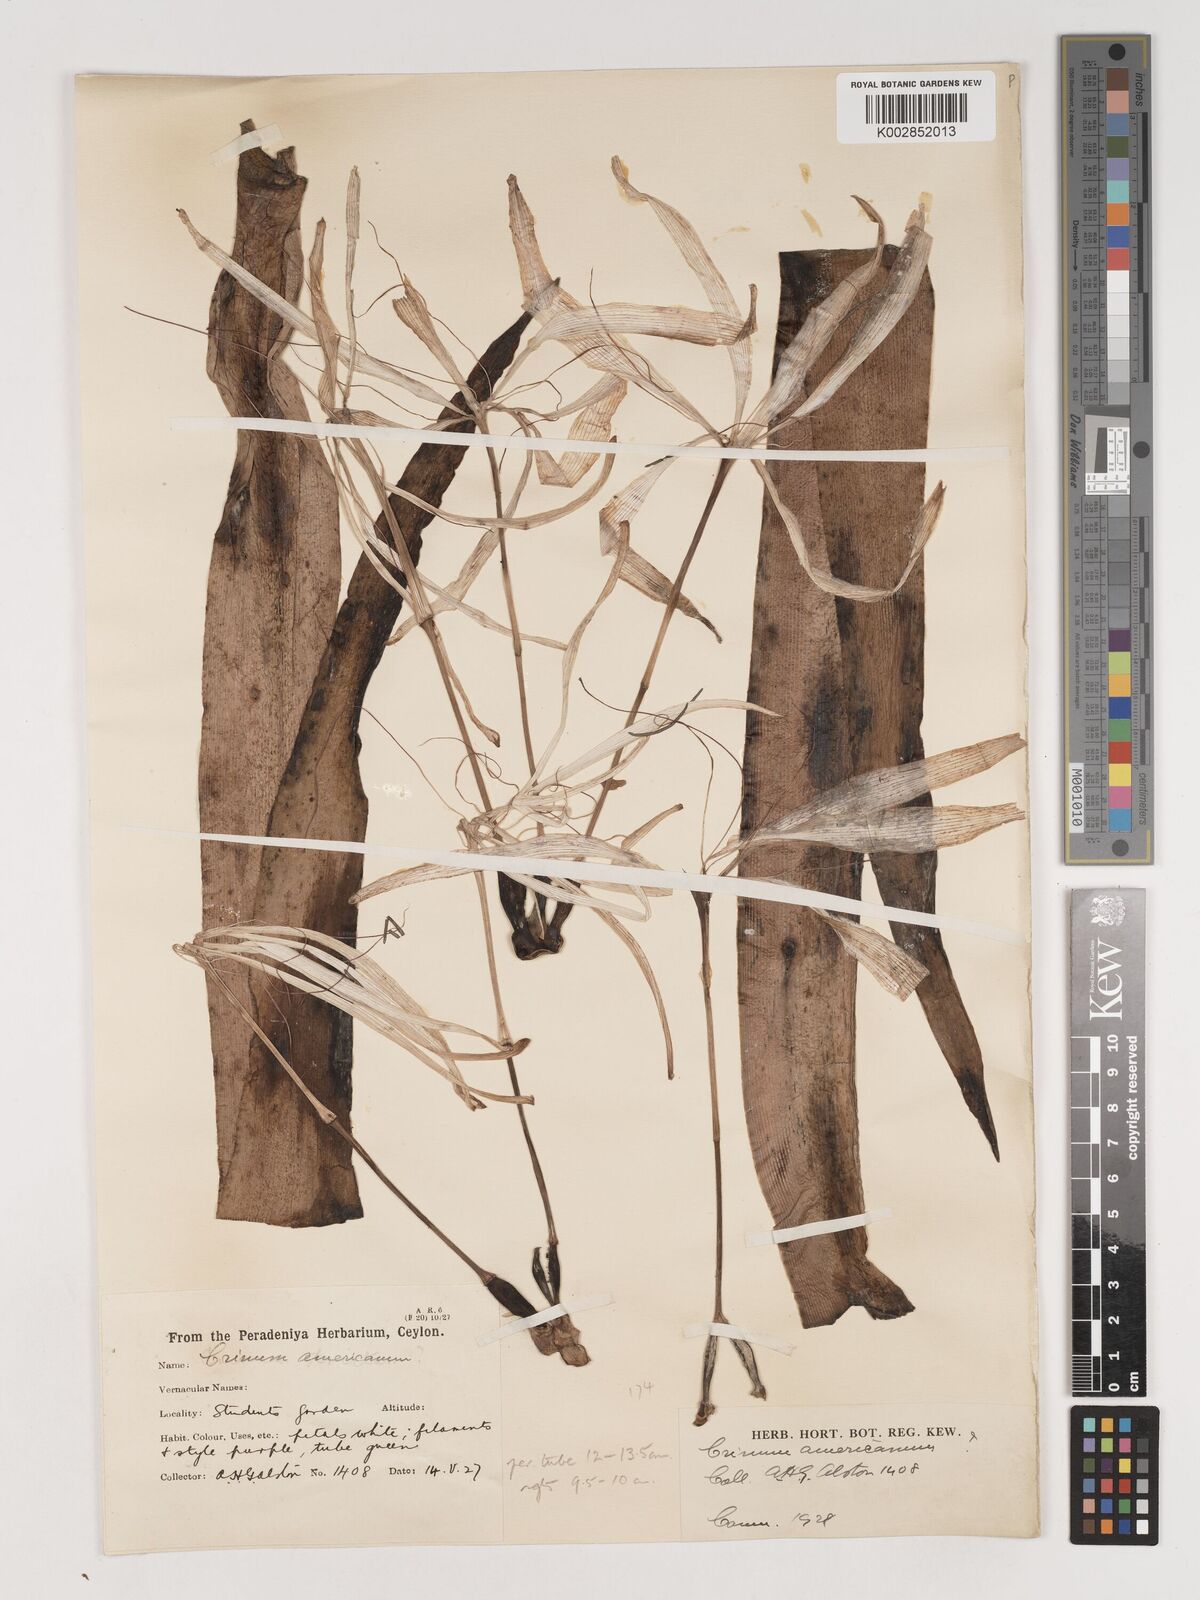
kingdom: Plantae
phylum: Tracheophyta
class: Liliopsida
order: Asparagales
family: Amaryllidaceae
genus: Crinum
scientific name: Crinum americanum
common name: Florida swamp-lily
